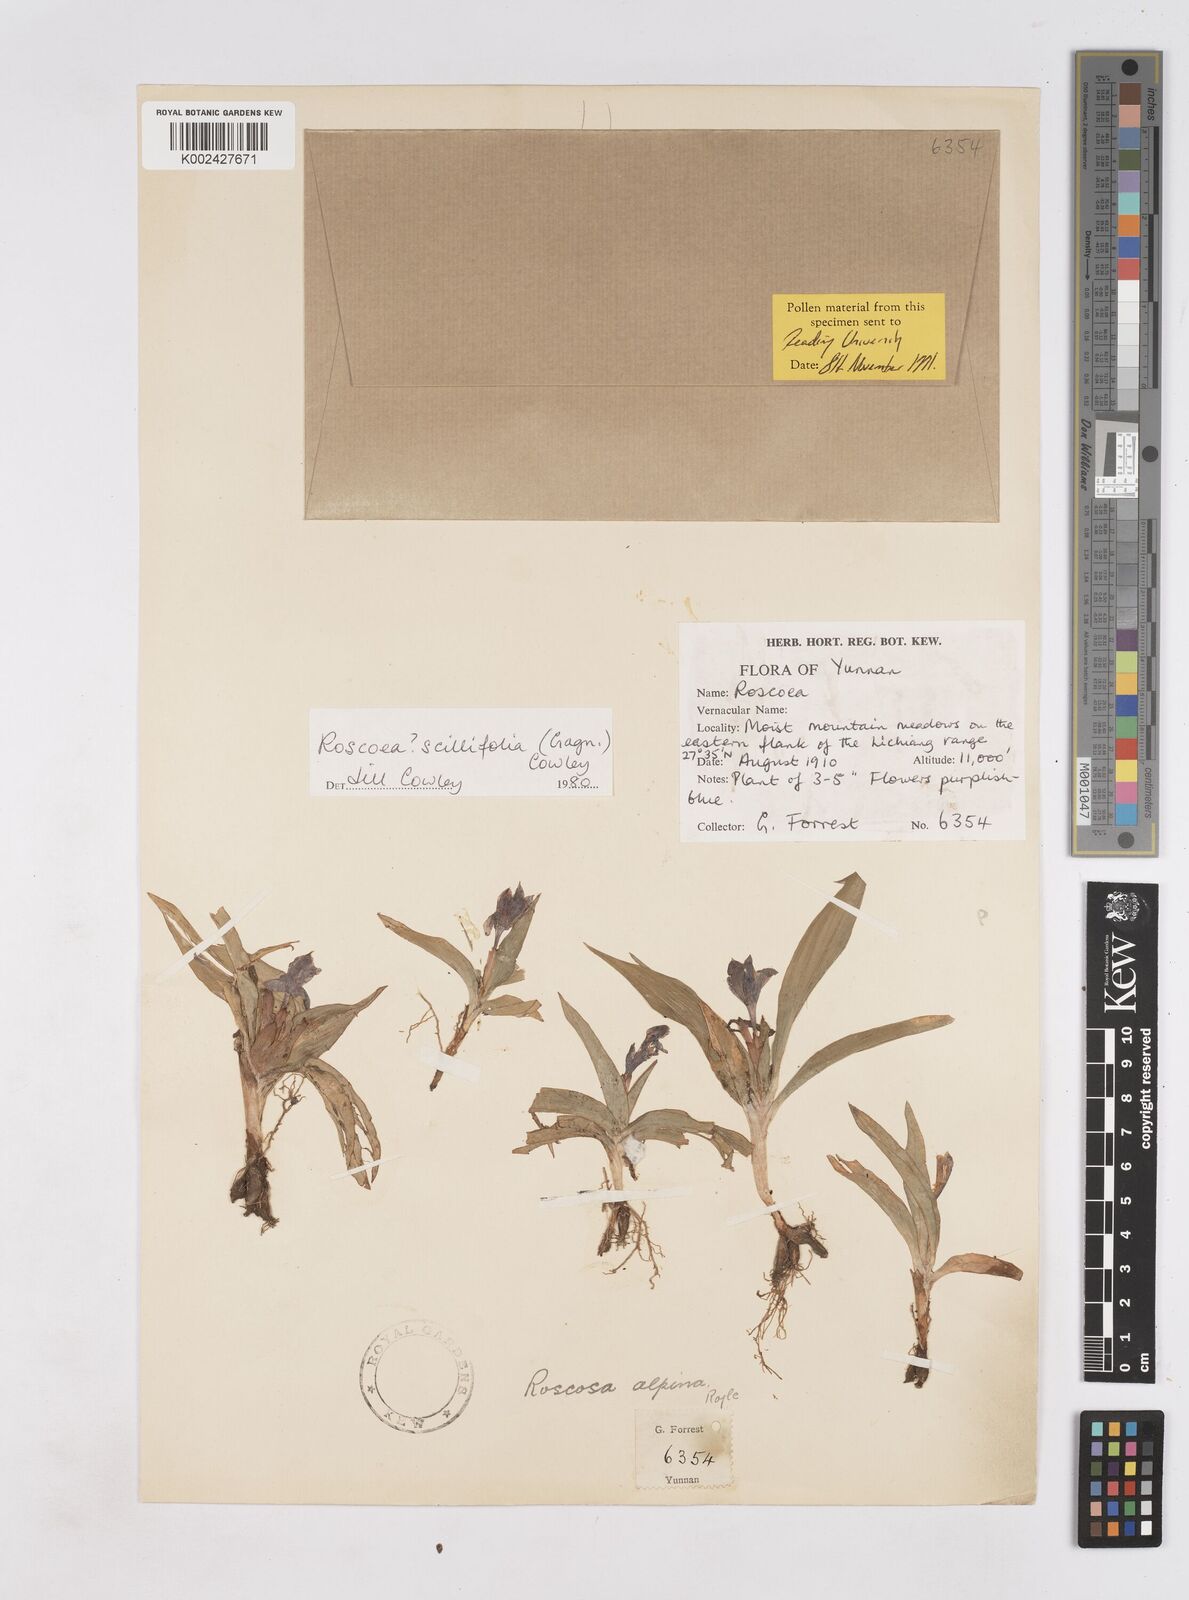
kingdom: Plantae
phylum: Tracheophyta
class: Liliopsida
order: Zingiberales
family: Zingiberaceae
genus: Roscoea
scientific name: Roscoea scillifolia
